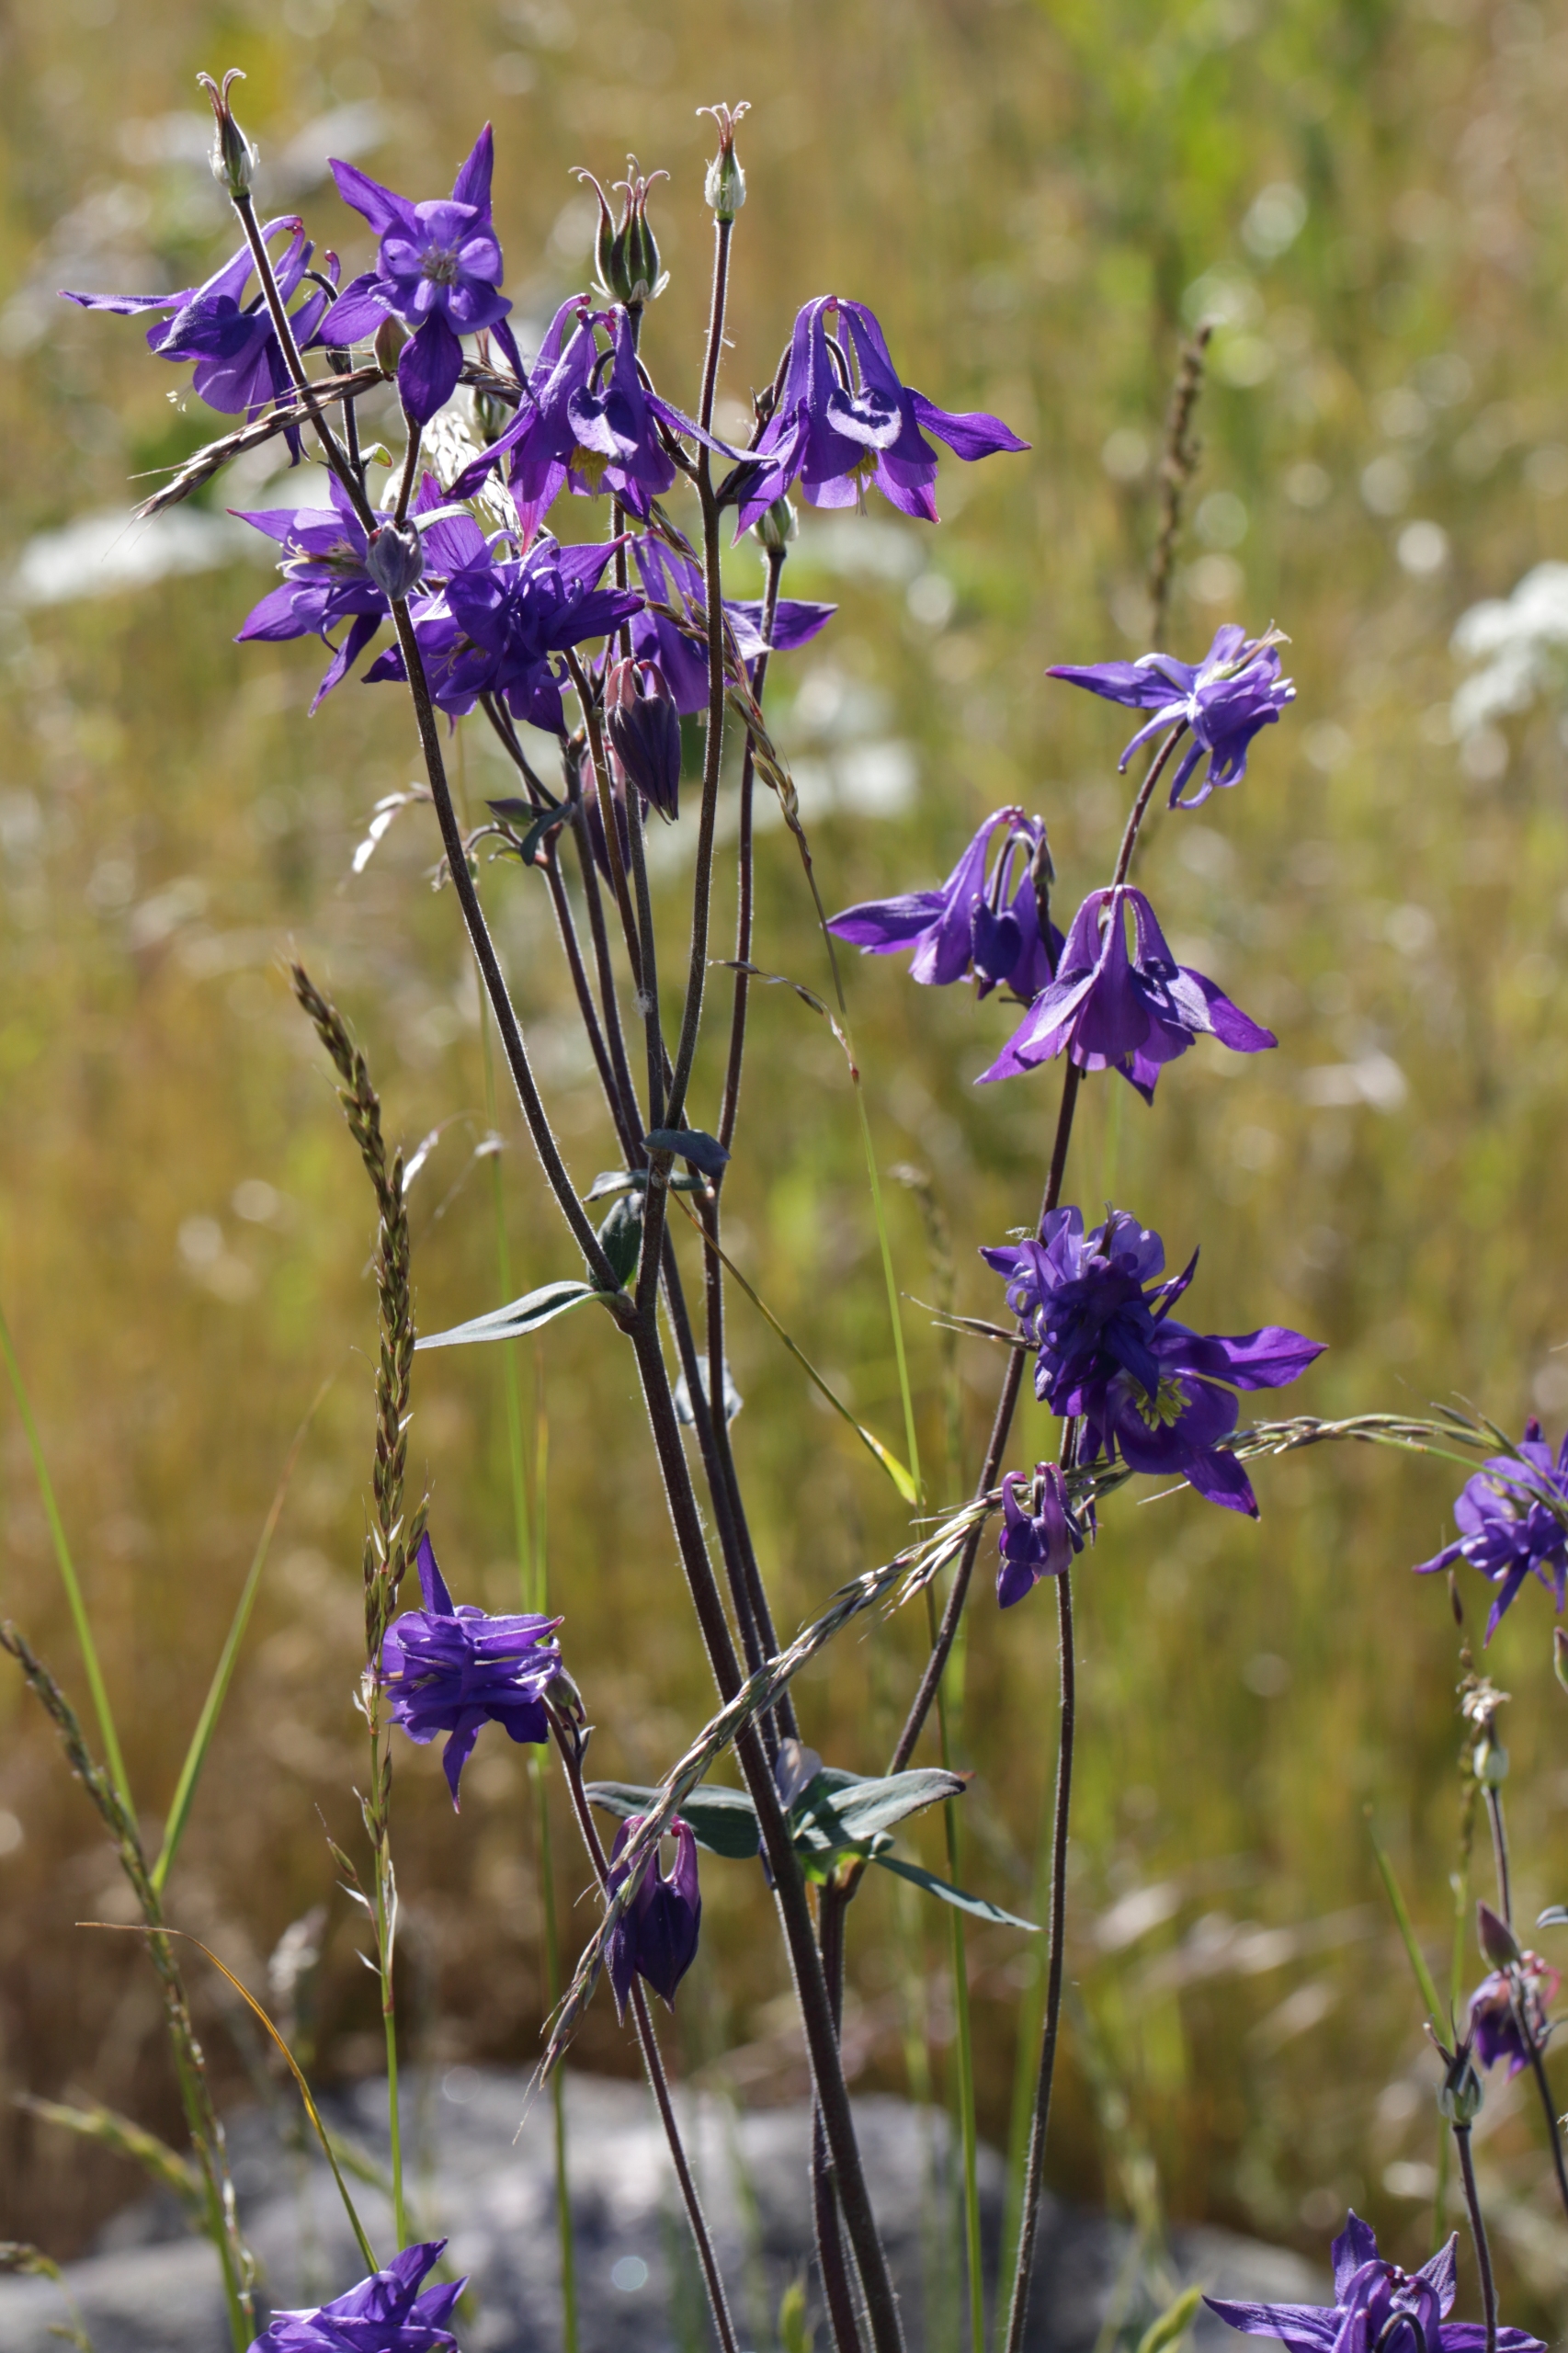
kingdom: Plantae
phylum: Tracheophyta
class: Magnoliopsida
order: Ranunculales
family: Ranunculaceae
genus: Aquilegia
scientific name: Aquilegia vulgaris
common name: Akeleje
